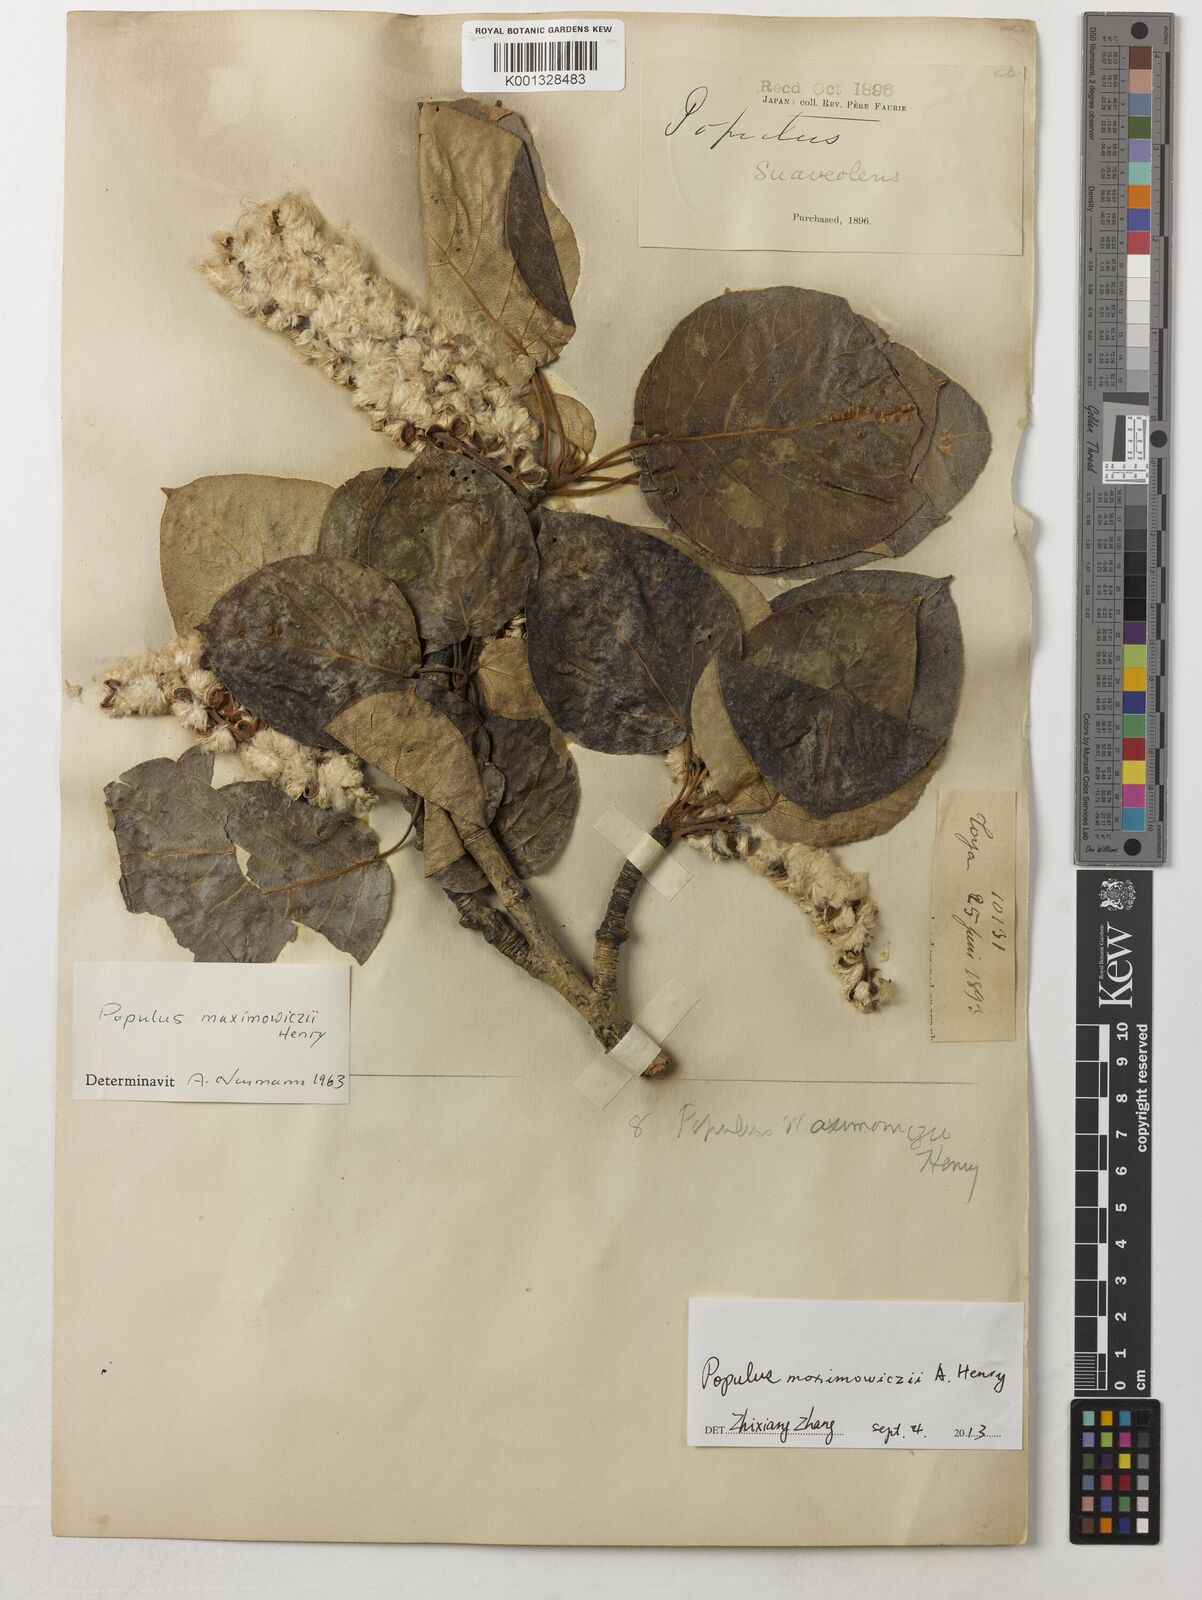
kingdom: Plantae
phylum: Tracheophyta
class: Magnoliopsida
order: Malpighiales
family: Salicaceae
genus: Populus
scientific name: Populus suaveolens
